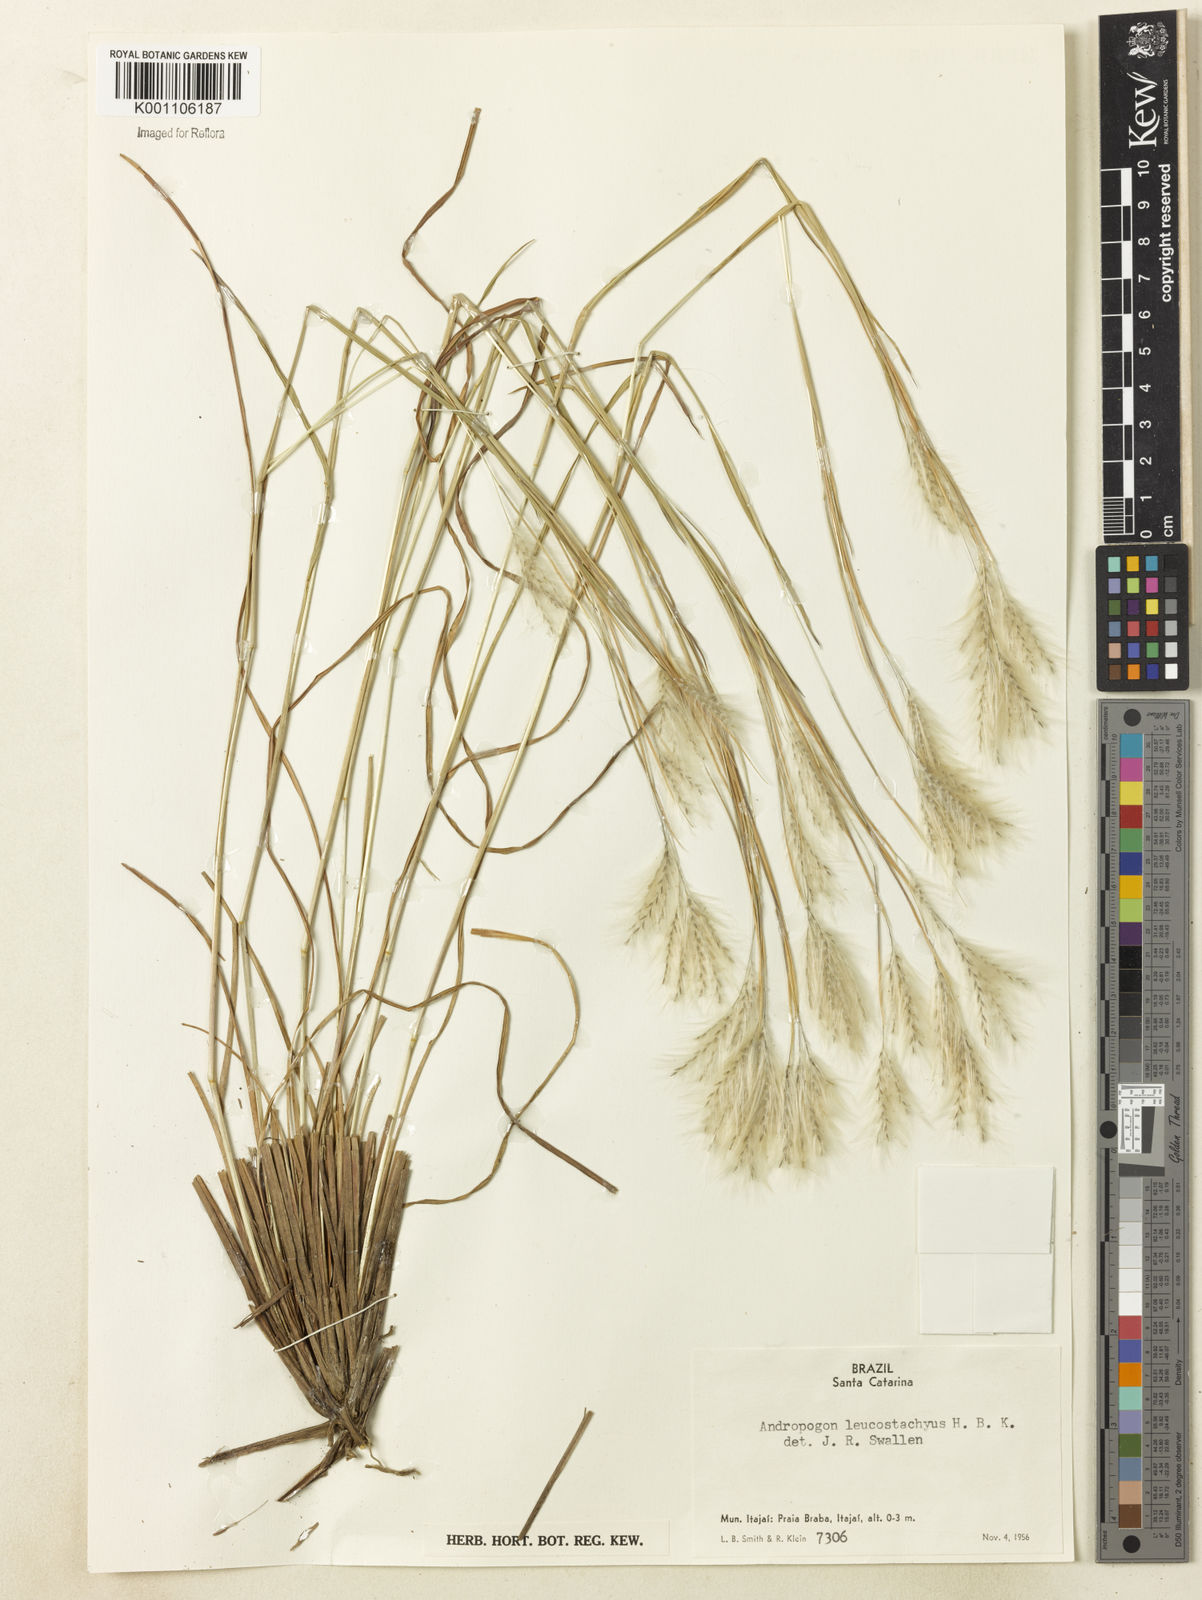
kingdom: Plantae
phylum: Tracheophyta
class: Liliopsida
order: Poales
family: Poaceae
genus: Andropogon
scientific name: Andropogon leucostachyus
